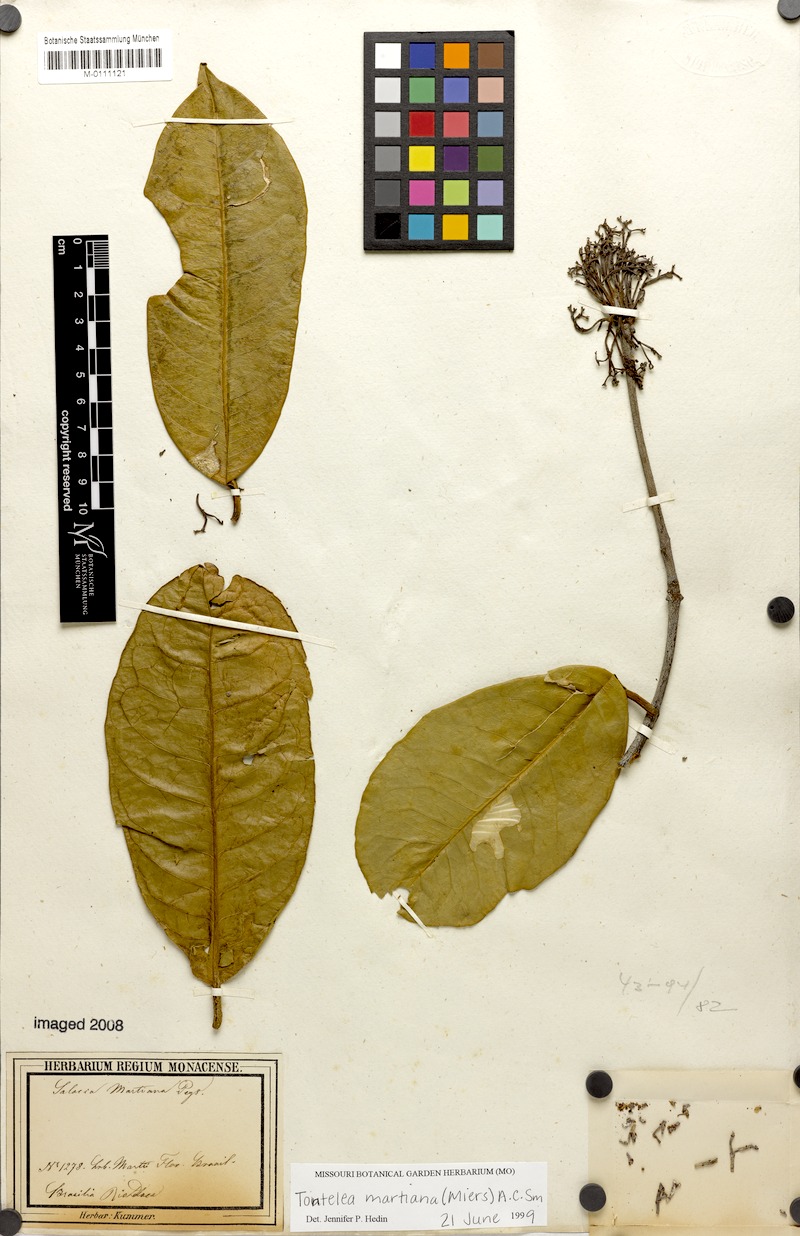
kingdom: Plantae
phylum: Tracheophyta
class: Magnoliopsida
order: Celastrales
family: Celastraceae
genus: Tontelea
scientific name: Tontelea martiana
